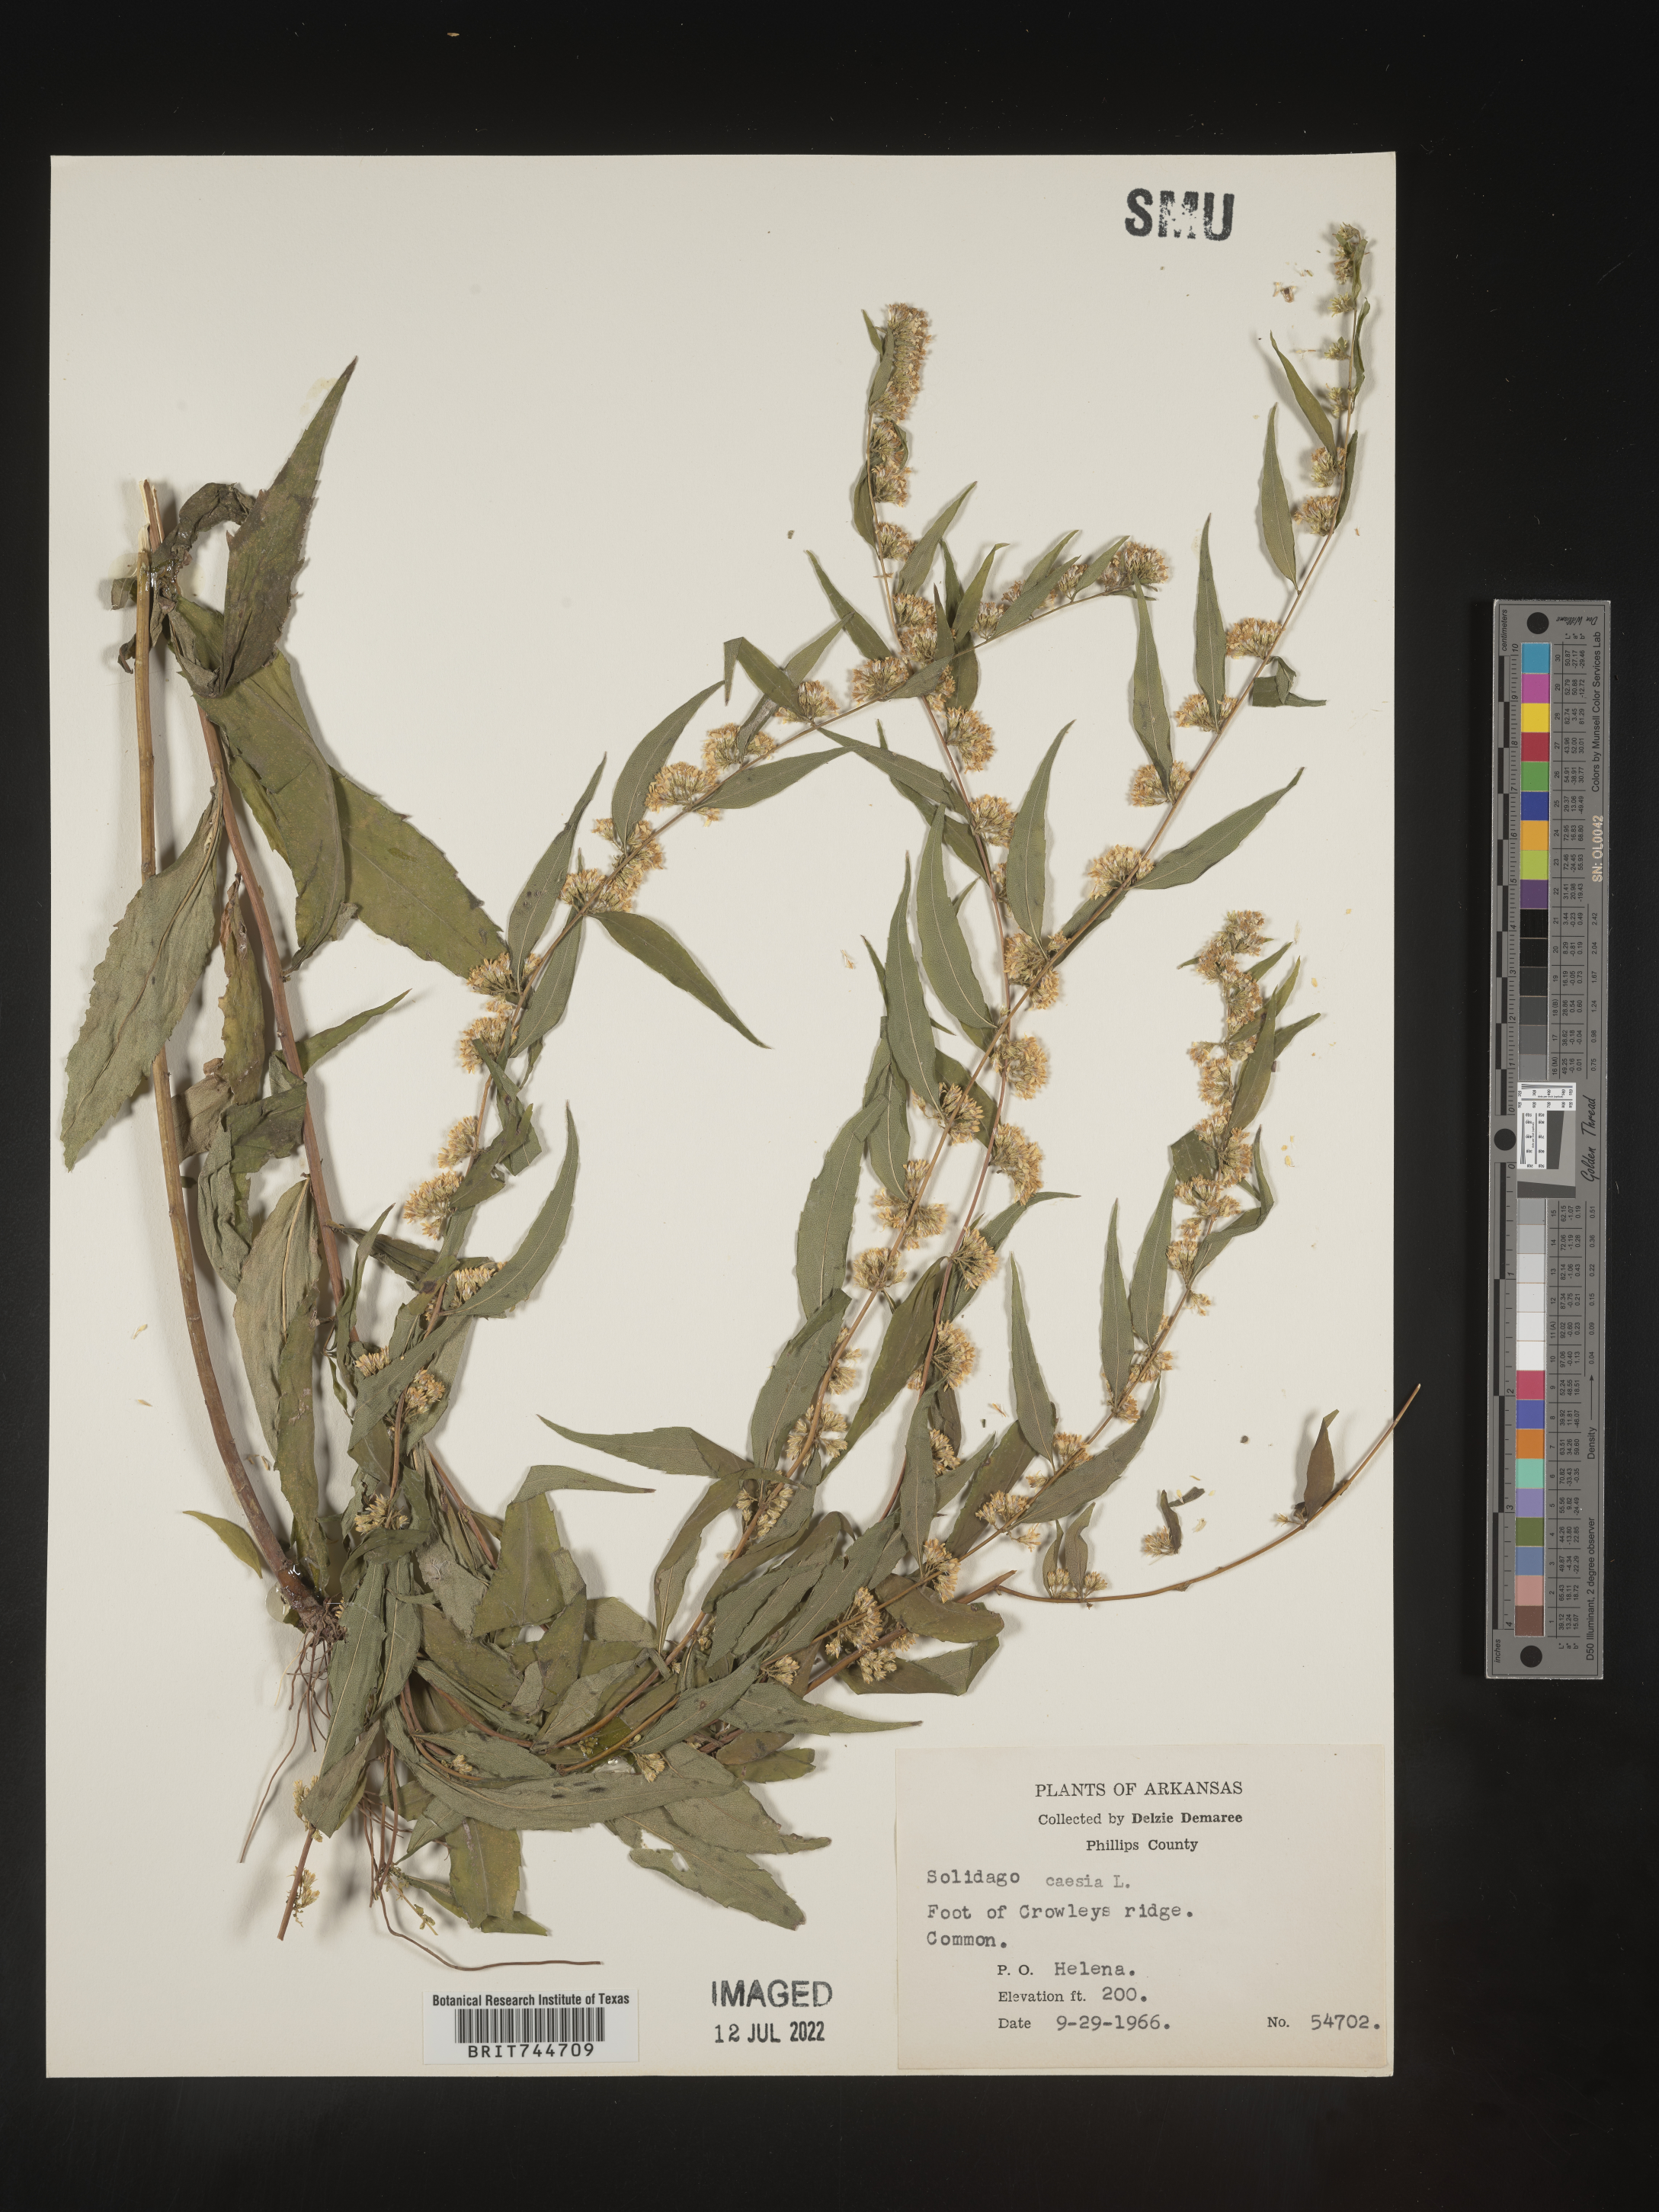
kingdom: Plantae
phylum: Tracheophyta
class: Magnoliopsida
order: Asterales
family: Asteraceae
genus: Solidago
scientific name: Solidago caesia
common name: Woodland goldenrod
